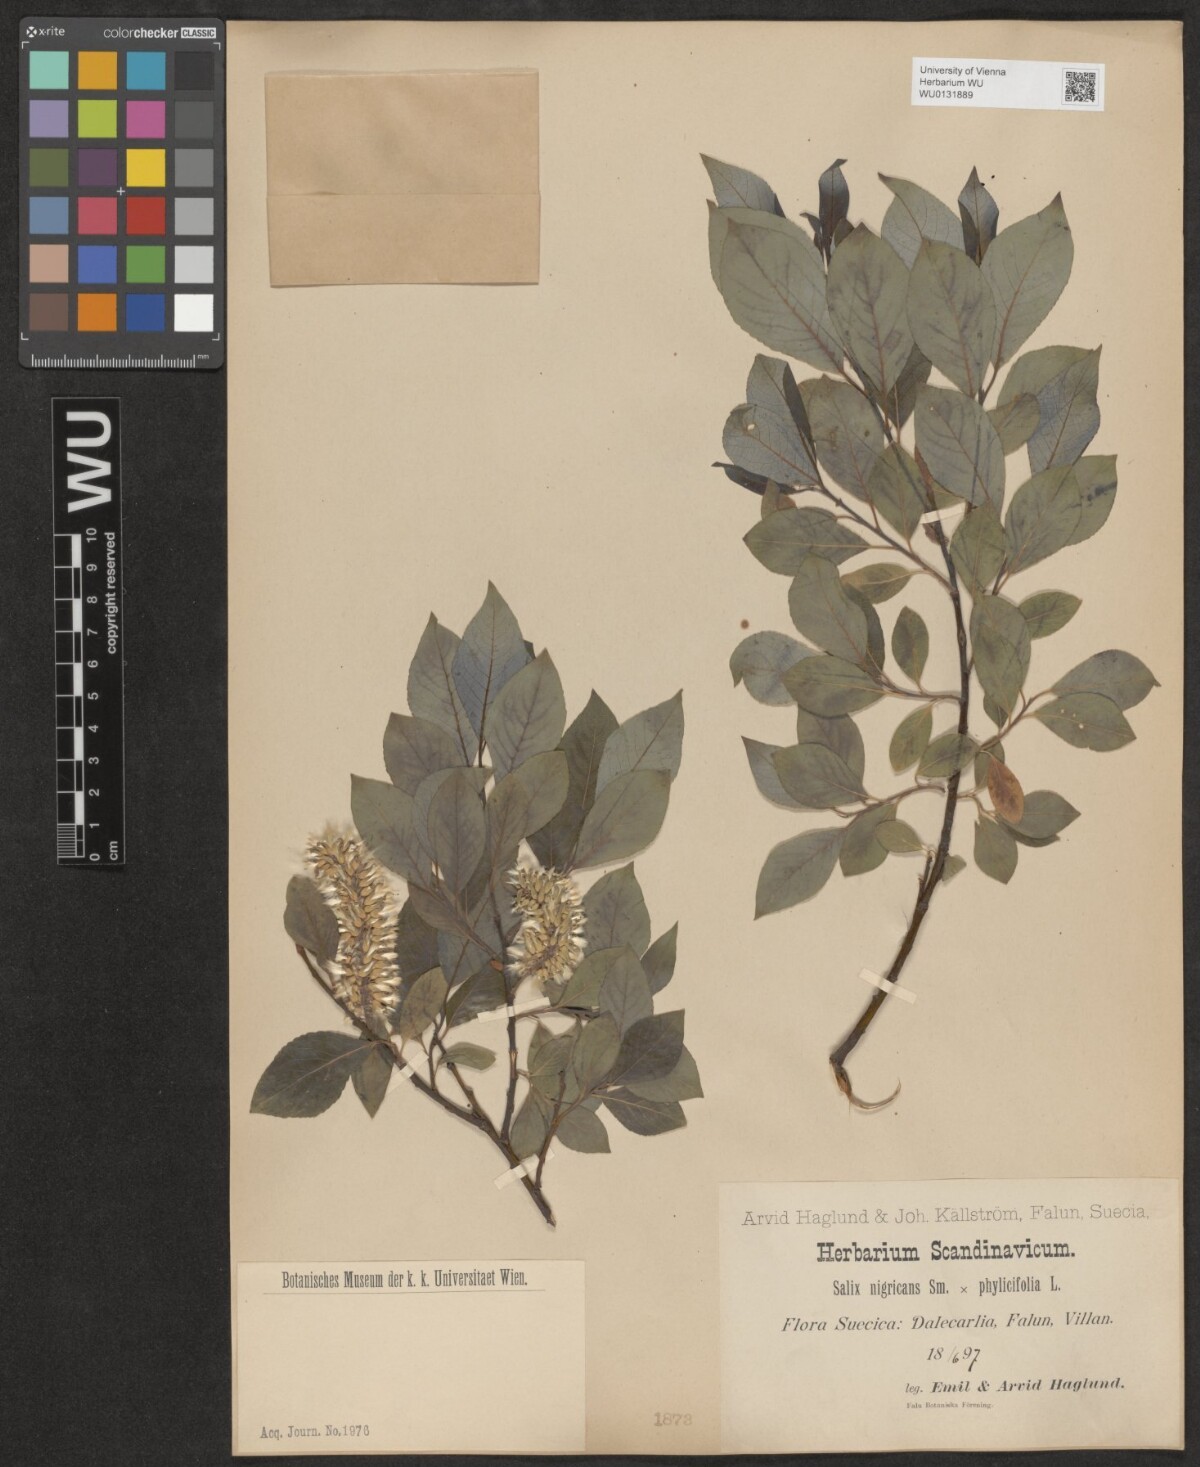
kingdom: Plantae
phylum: Tracheophyta
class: Magnoliopsida
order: Malpighiales
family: Salicaceae
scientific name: Salicaceae
